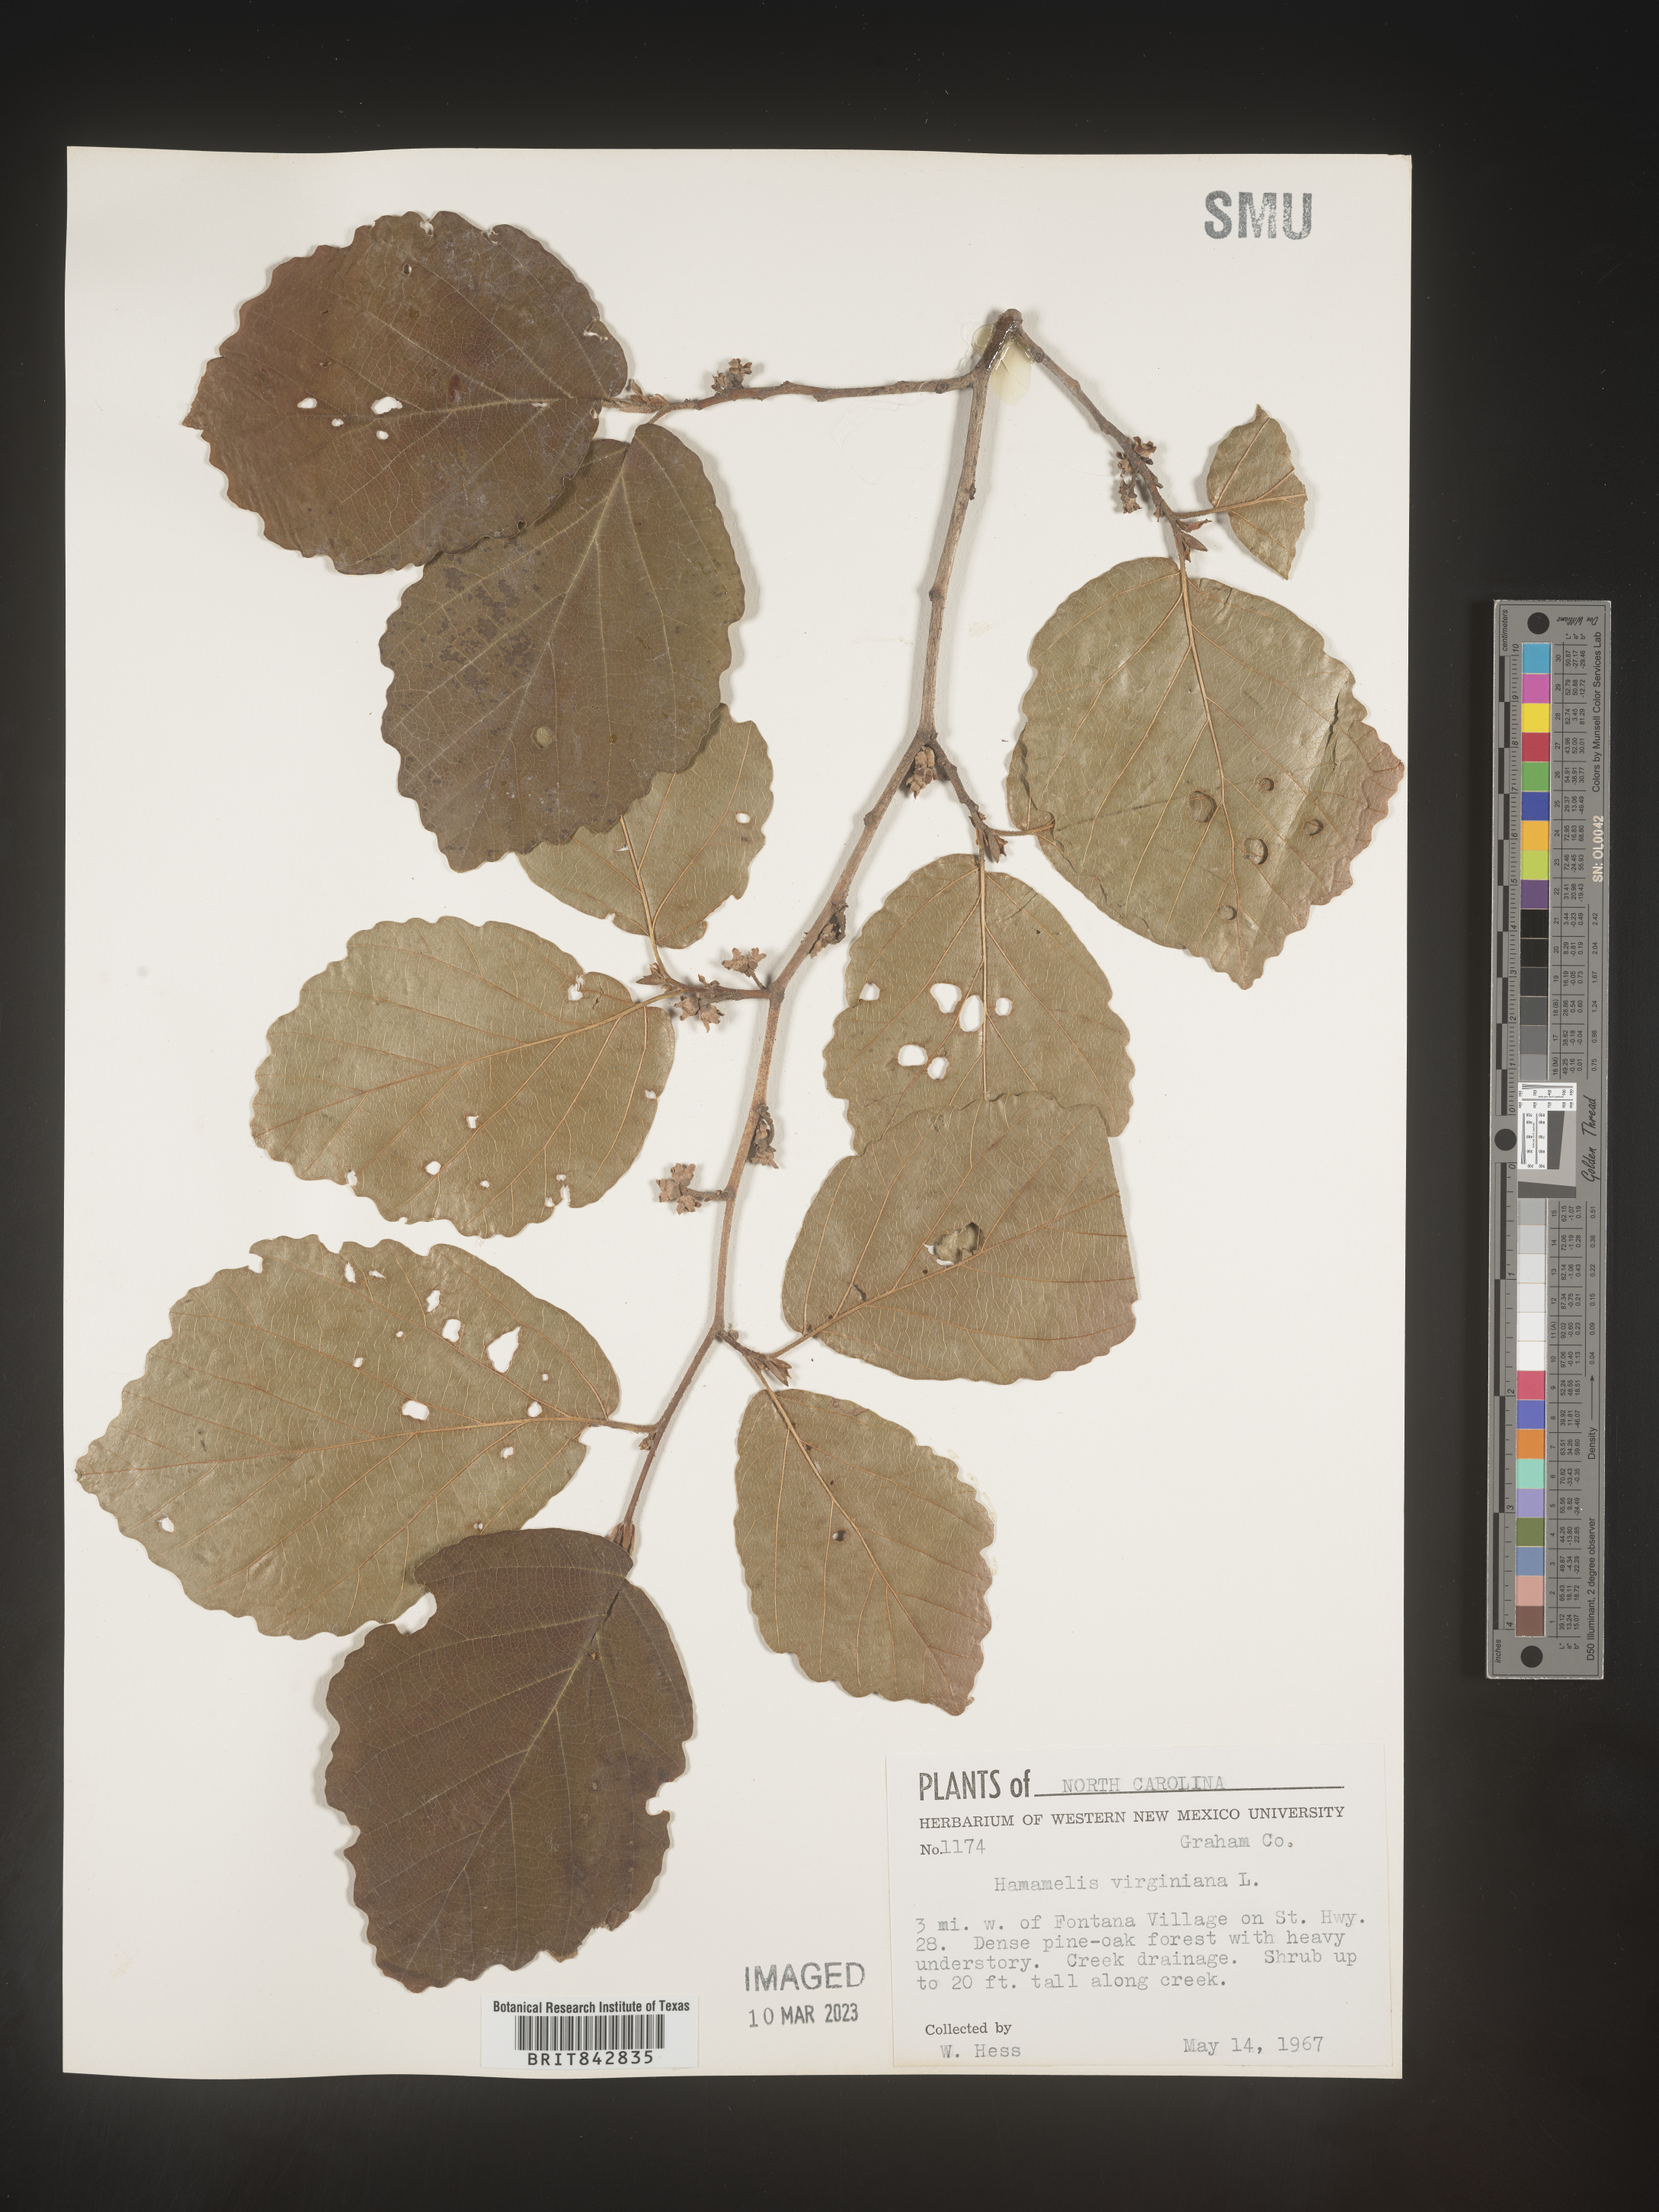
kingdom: Plantae
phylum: Tracheophyta
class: Magnoliopsida
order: Saxifragales
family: Hamamelidaceae
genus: Hamamelis
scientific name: Hamamelis virginiana
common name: Witch-hazel
